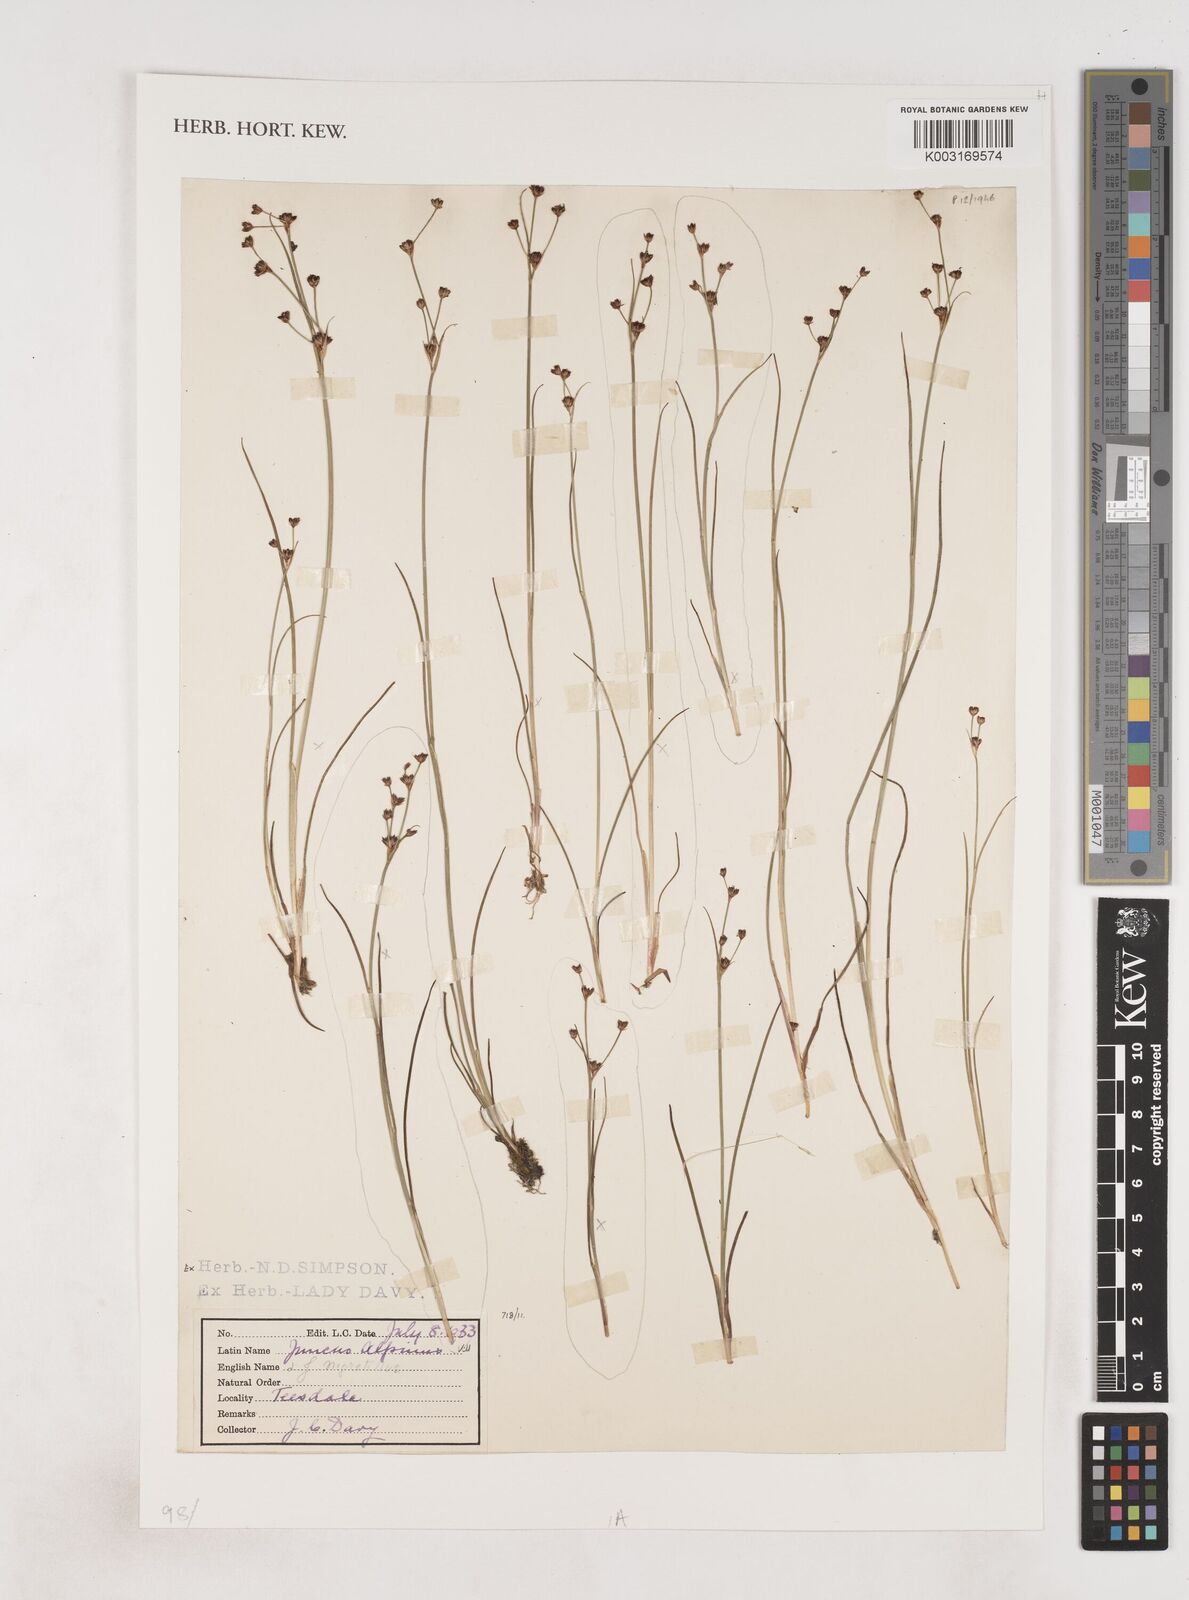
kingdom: Plantae
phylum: Tracheophyta
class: Liliopsida
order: Poales
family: Juncaceae
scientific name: Juncaceae
